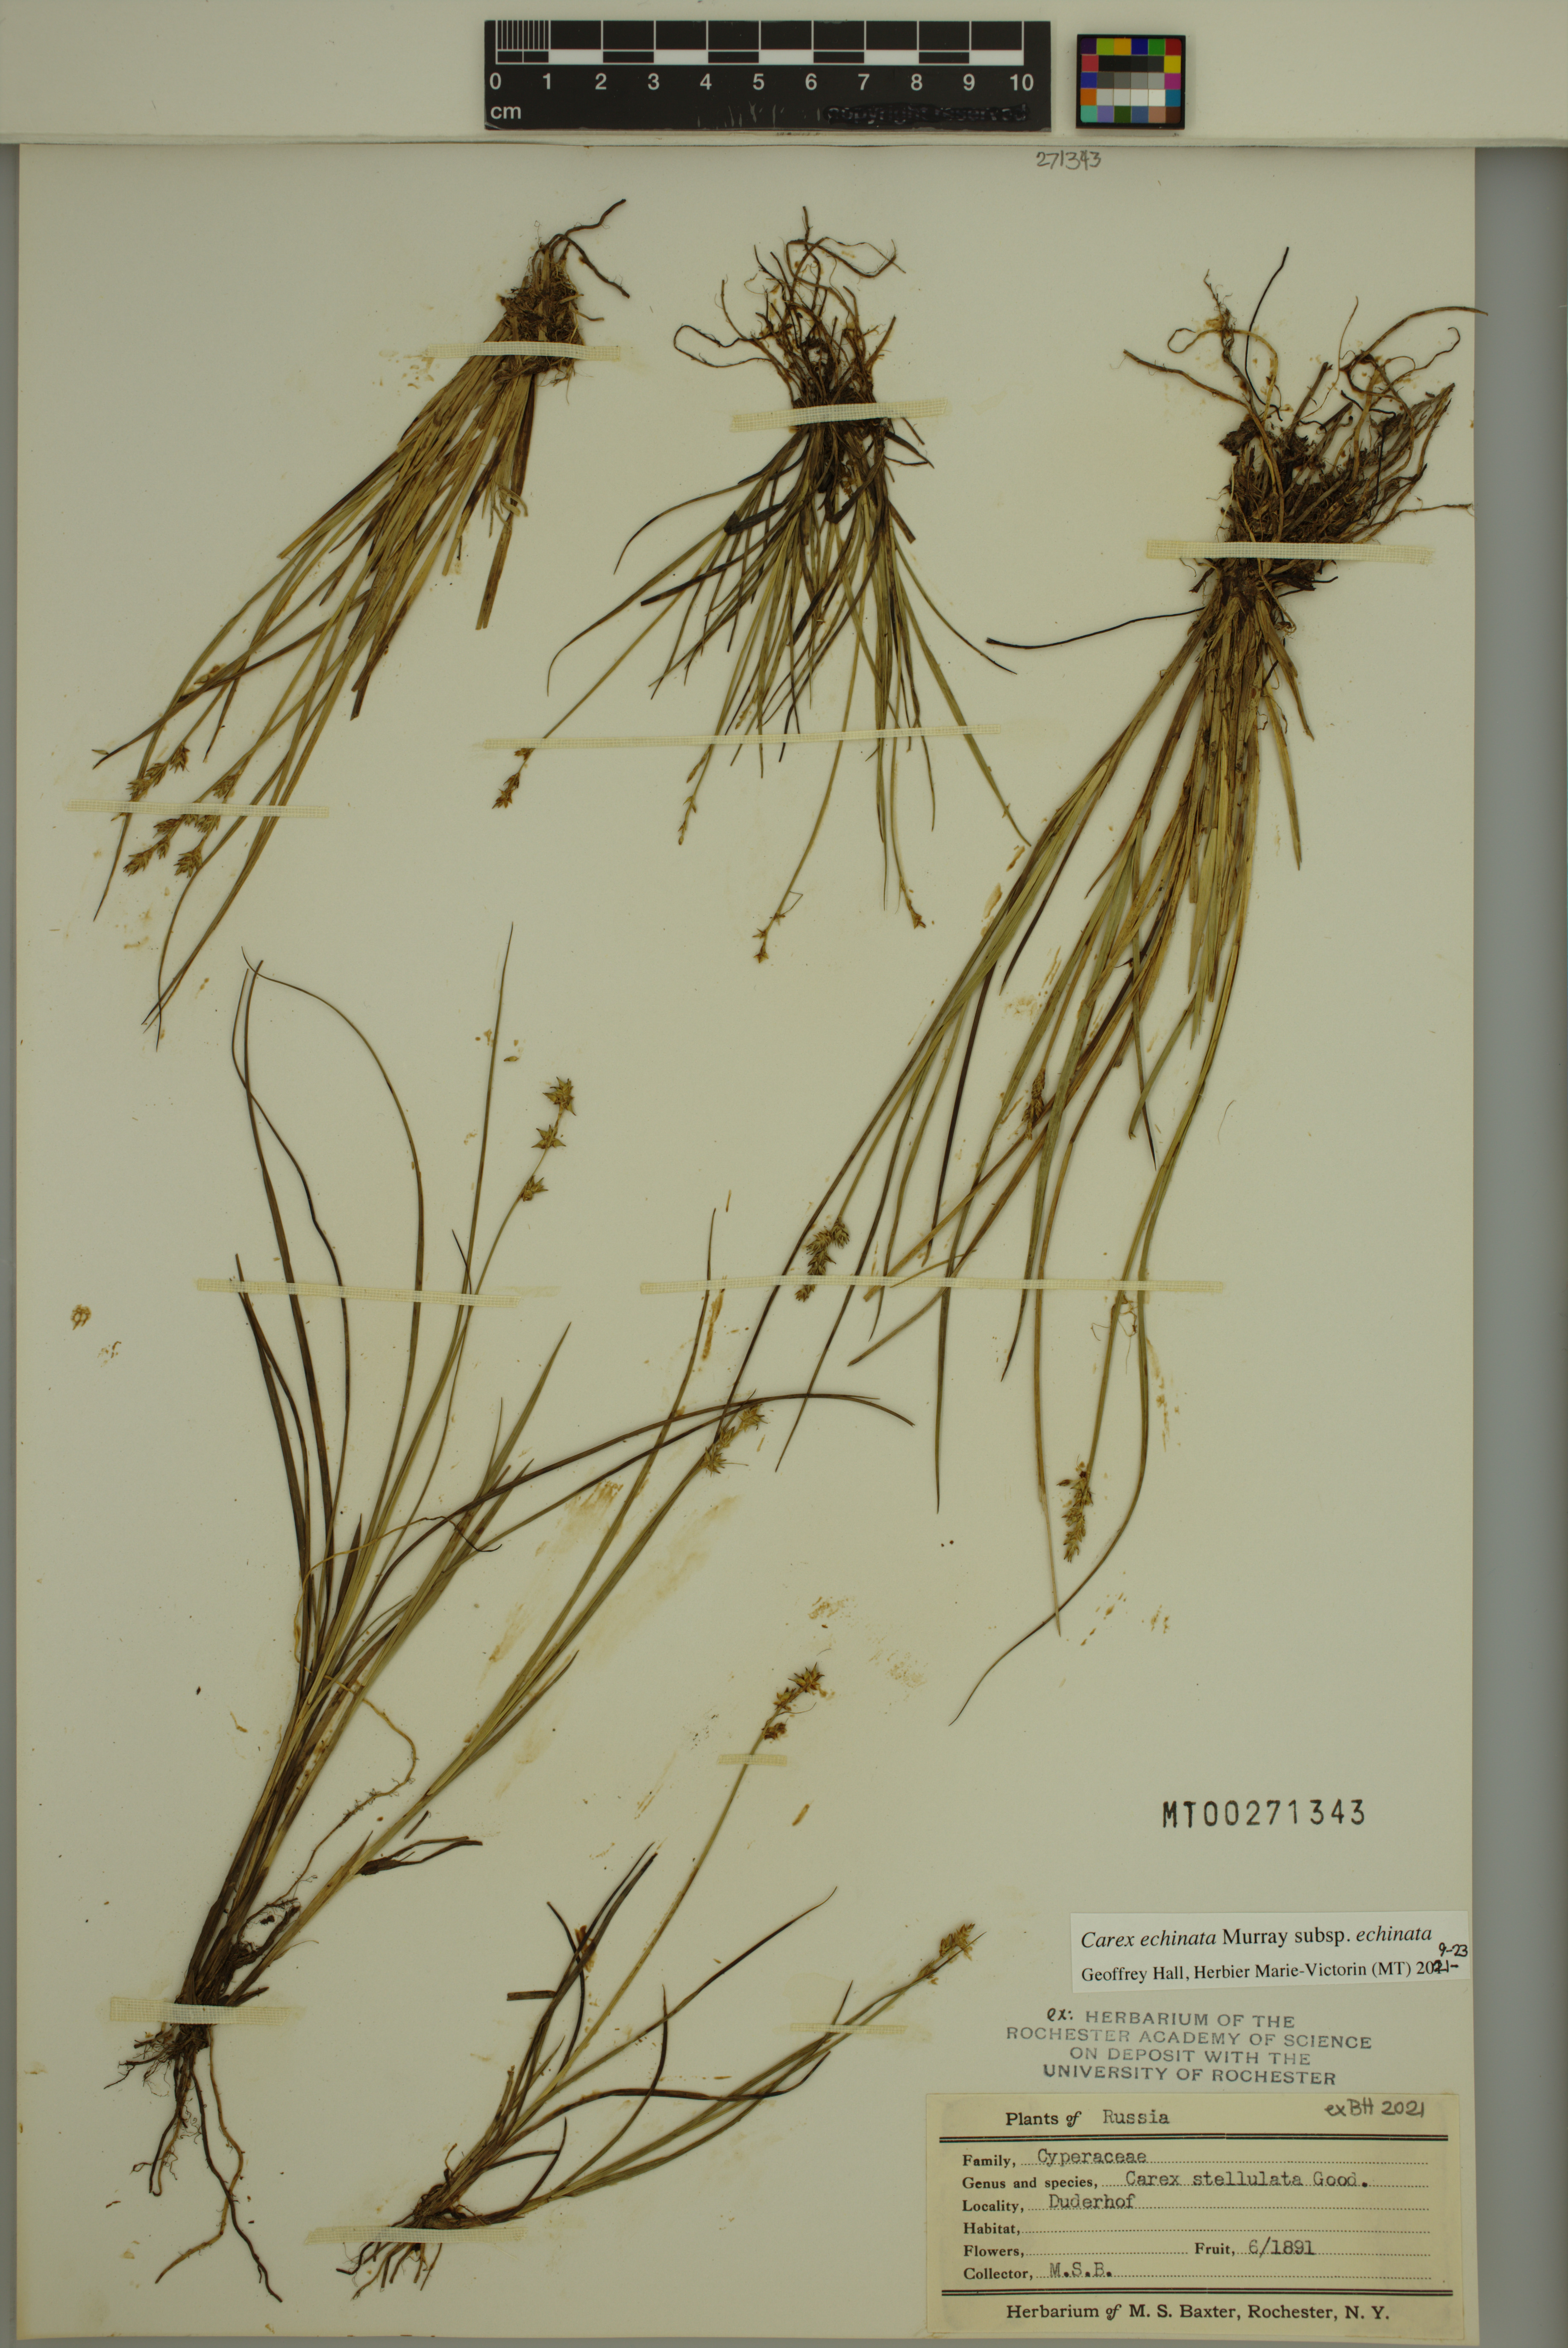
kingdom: Plantae
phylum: Tracheophyta
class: Liliopsida
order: Poales
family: Cyperaceae
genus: Carex
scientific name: Carex echinata
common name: Star sedge
